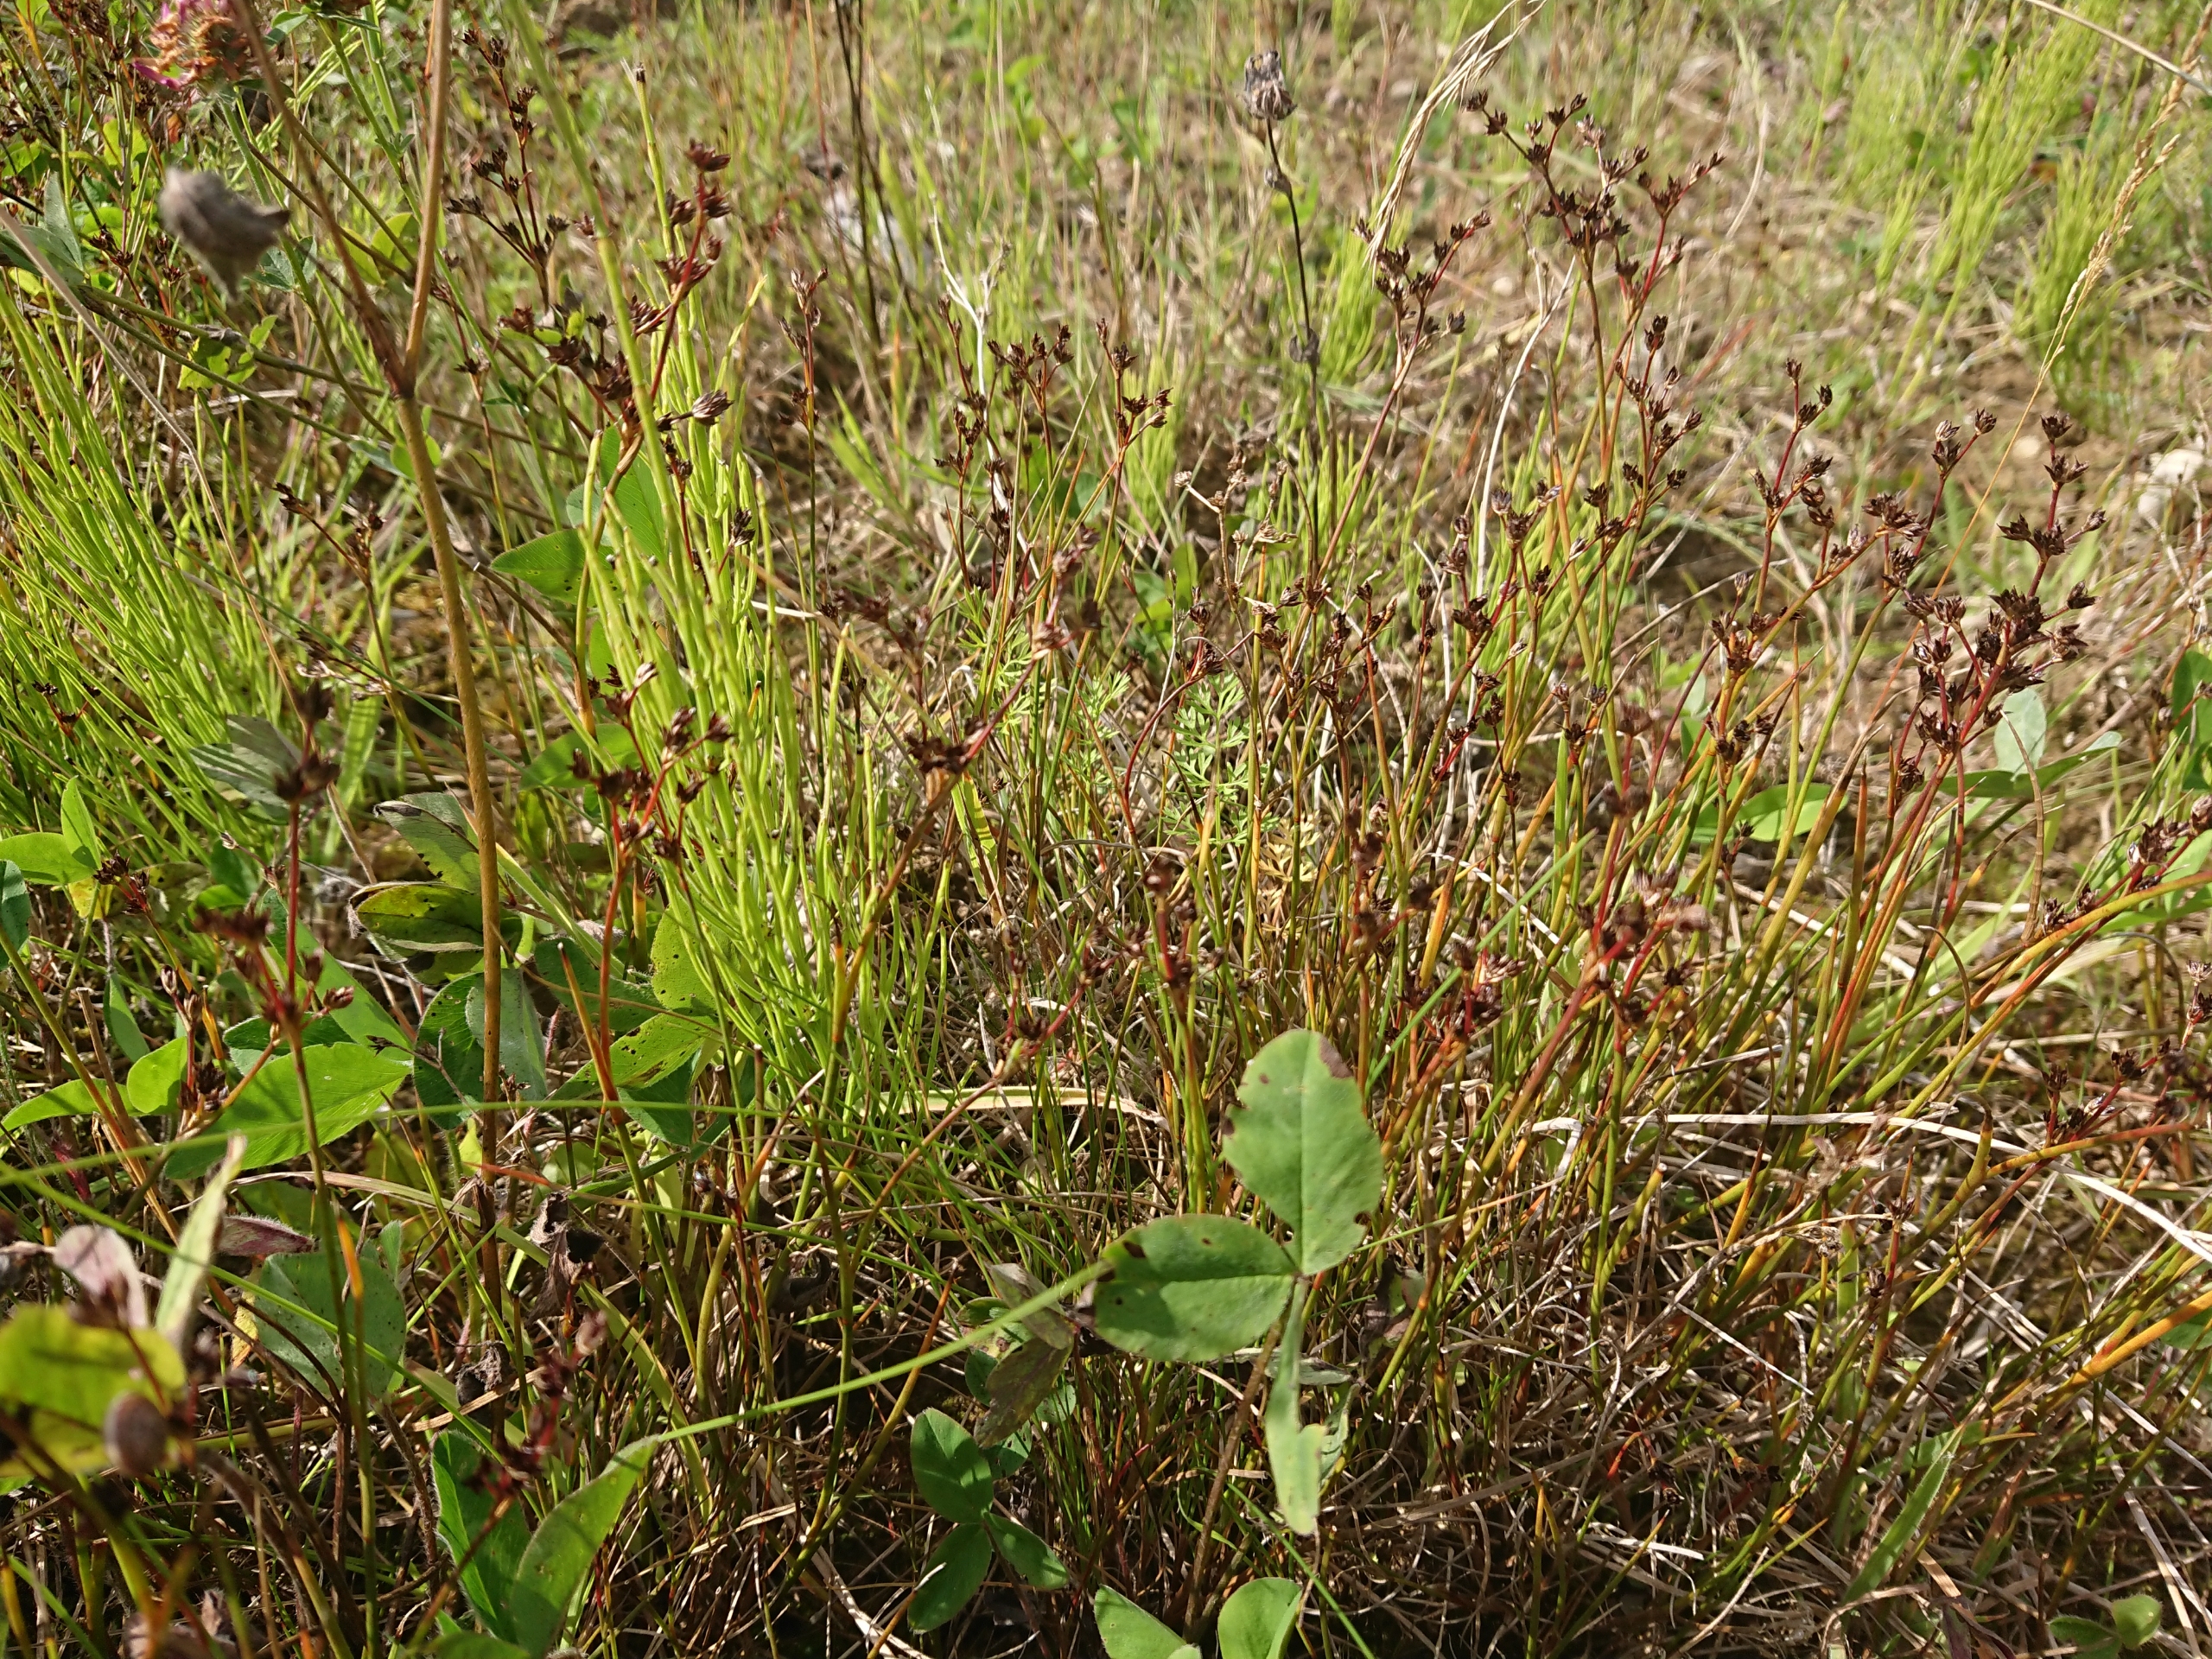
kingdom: Plantae
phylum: Tracheophyta
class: Liliopsida
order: Poales
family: Juncaceae
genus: Juncus
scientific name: Juncus articulatus
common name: Glanskapslet siv
